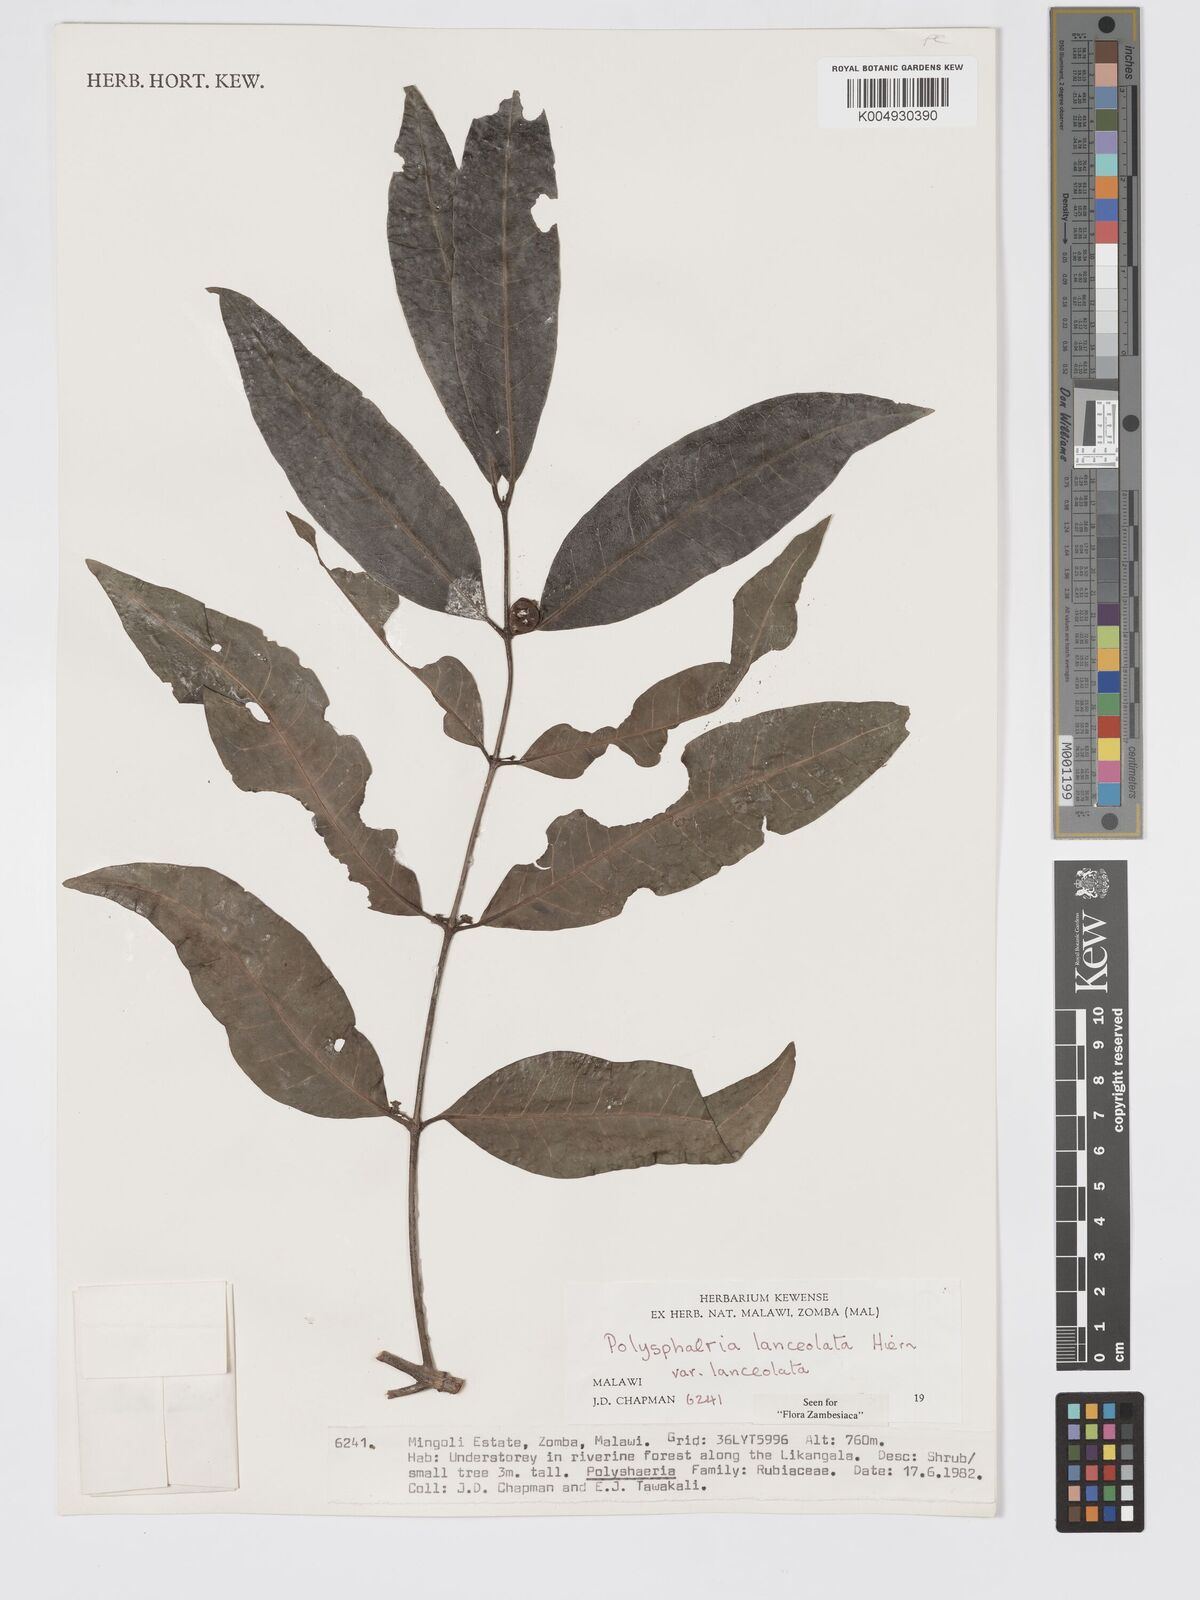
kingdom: Plantae
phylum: Tracheophyta
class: Magnoliopsida
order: Gentianales
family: Rubiaceae
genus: Polysphaeria
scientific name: Polysphaeria lanceolata
